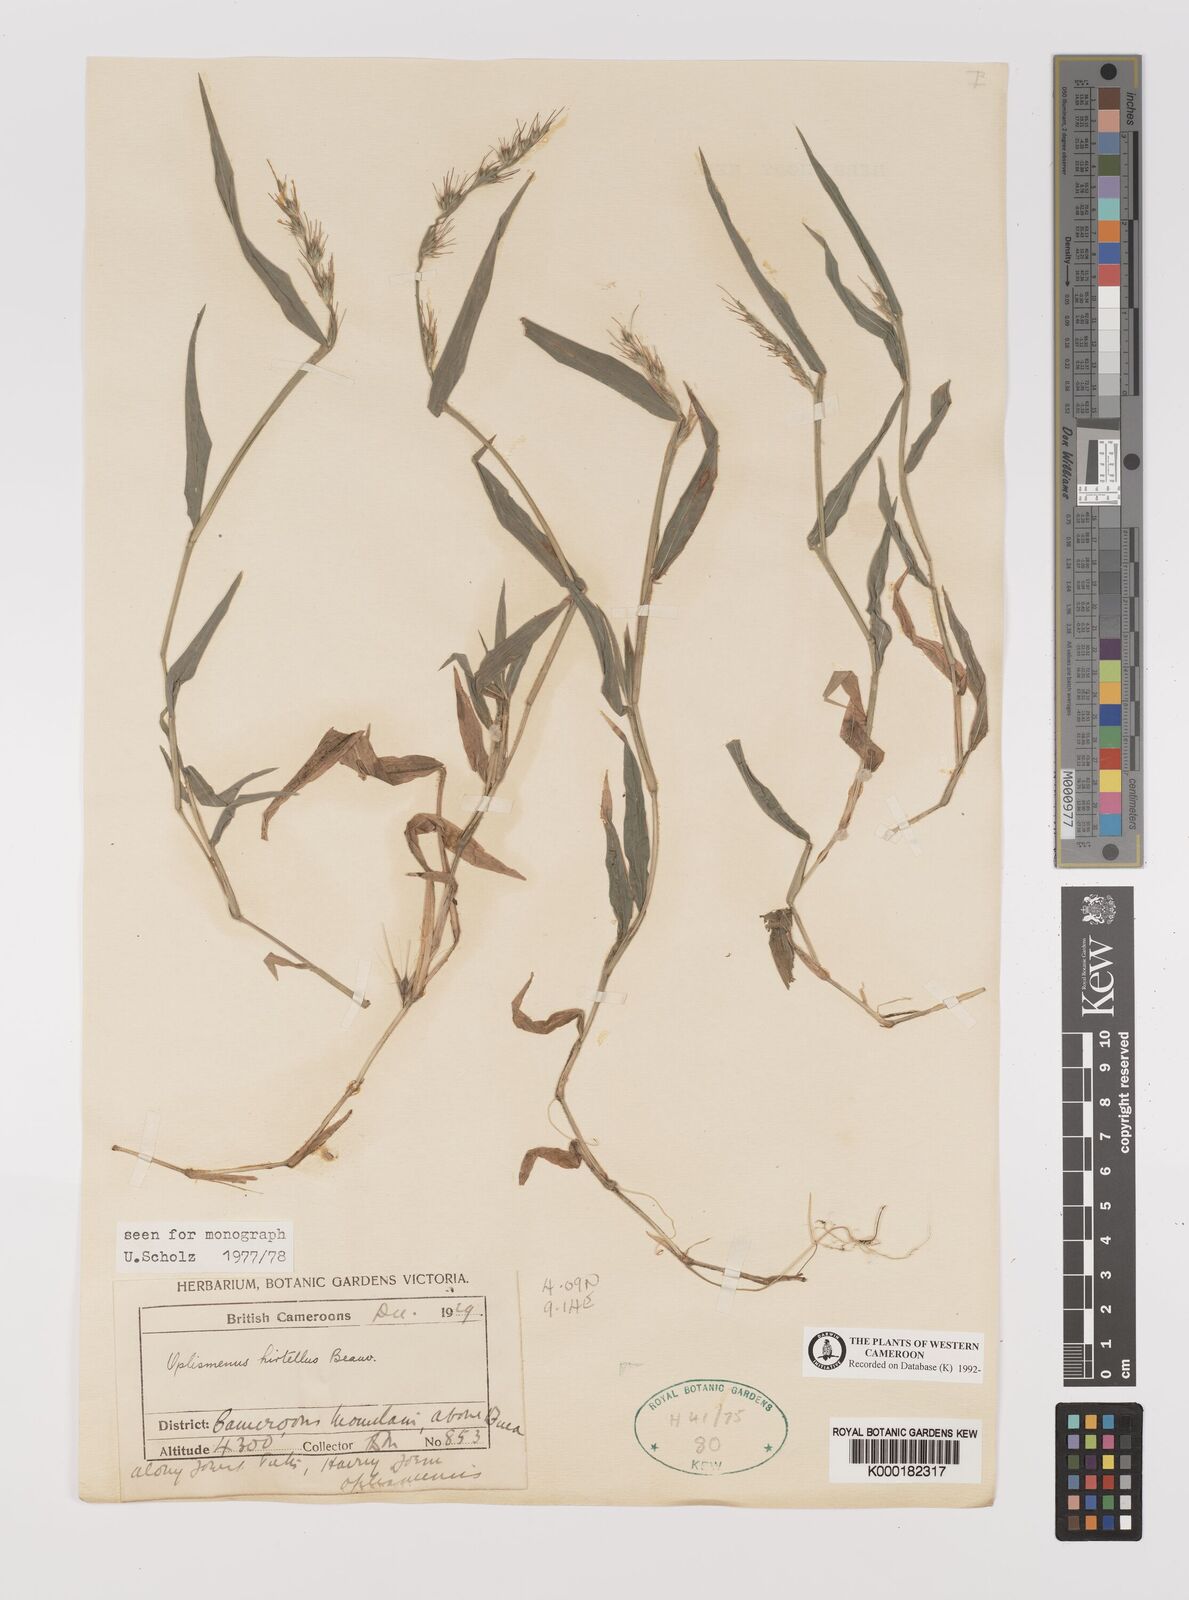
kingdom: Plantae
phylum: Tracheophyta
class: Liliopsida
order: Poales
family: Poaceae
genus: Oplismenus
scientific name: Oplismenus hirtellus
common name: Basketgrass
